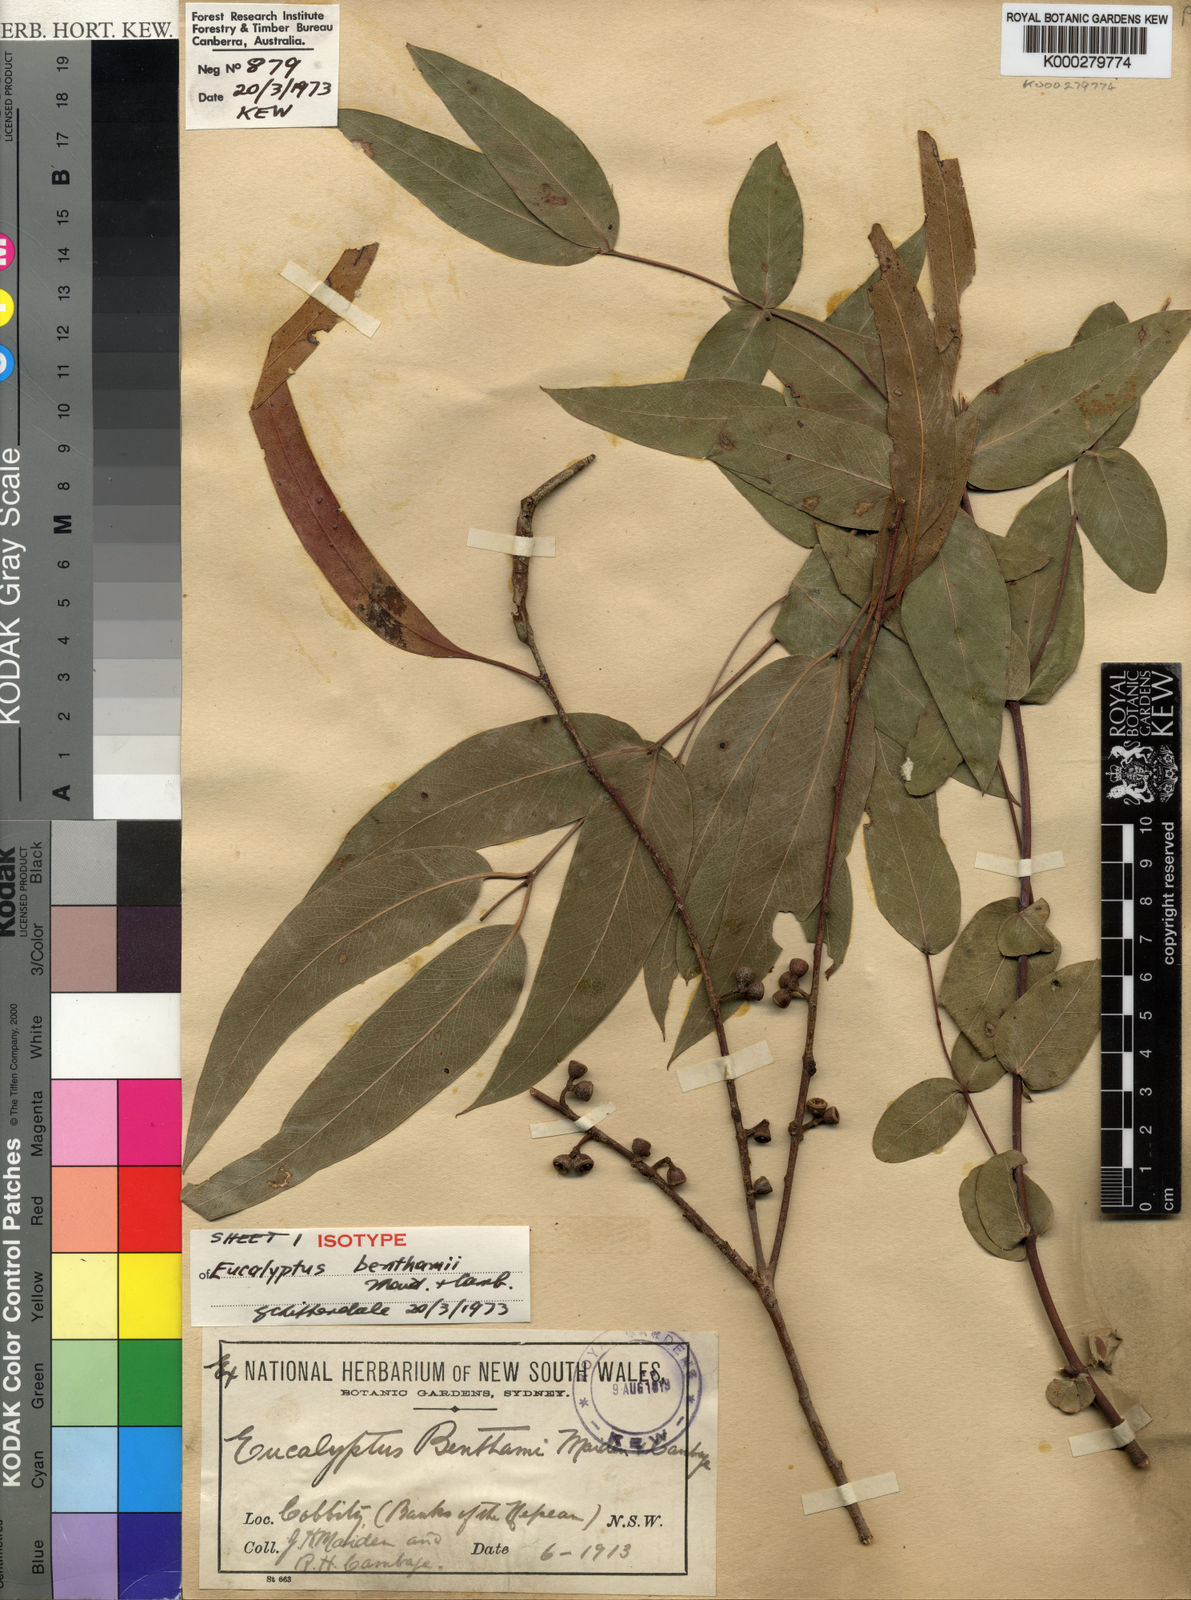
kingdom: Plantae
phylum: Tracheophyta
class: Magnoliopsida
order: Myrtales
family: Myrtaceae
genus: Eucalyptus
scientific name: Eucalyptus benthamii
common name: Camden white gum
